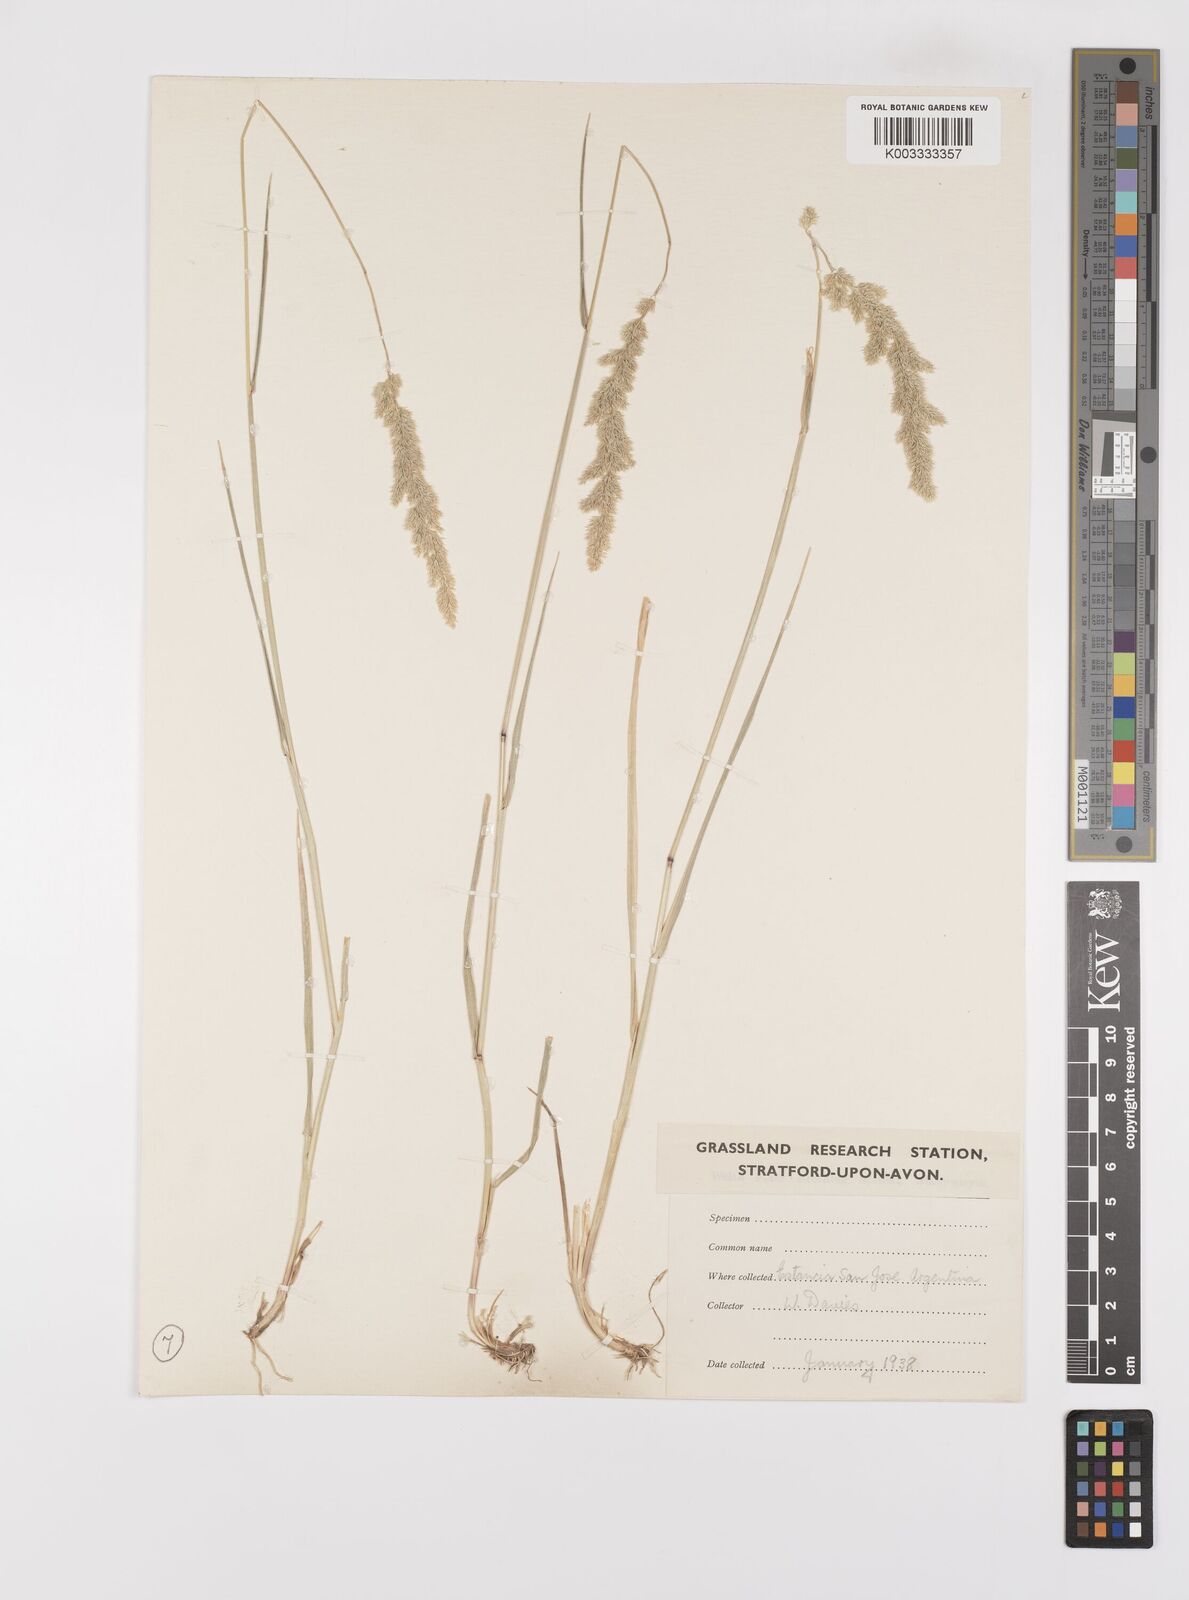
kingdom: Plantae
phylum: Tracheophyta
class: Liliopsida
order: Poales
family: Poaceae
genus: Polypogon
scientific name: Polypogon
